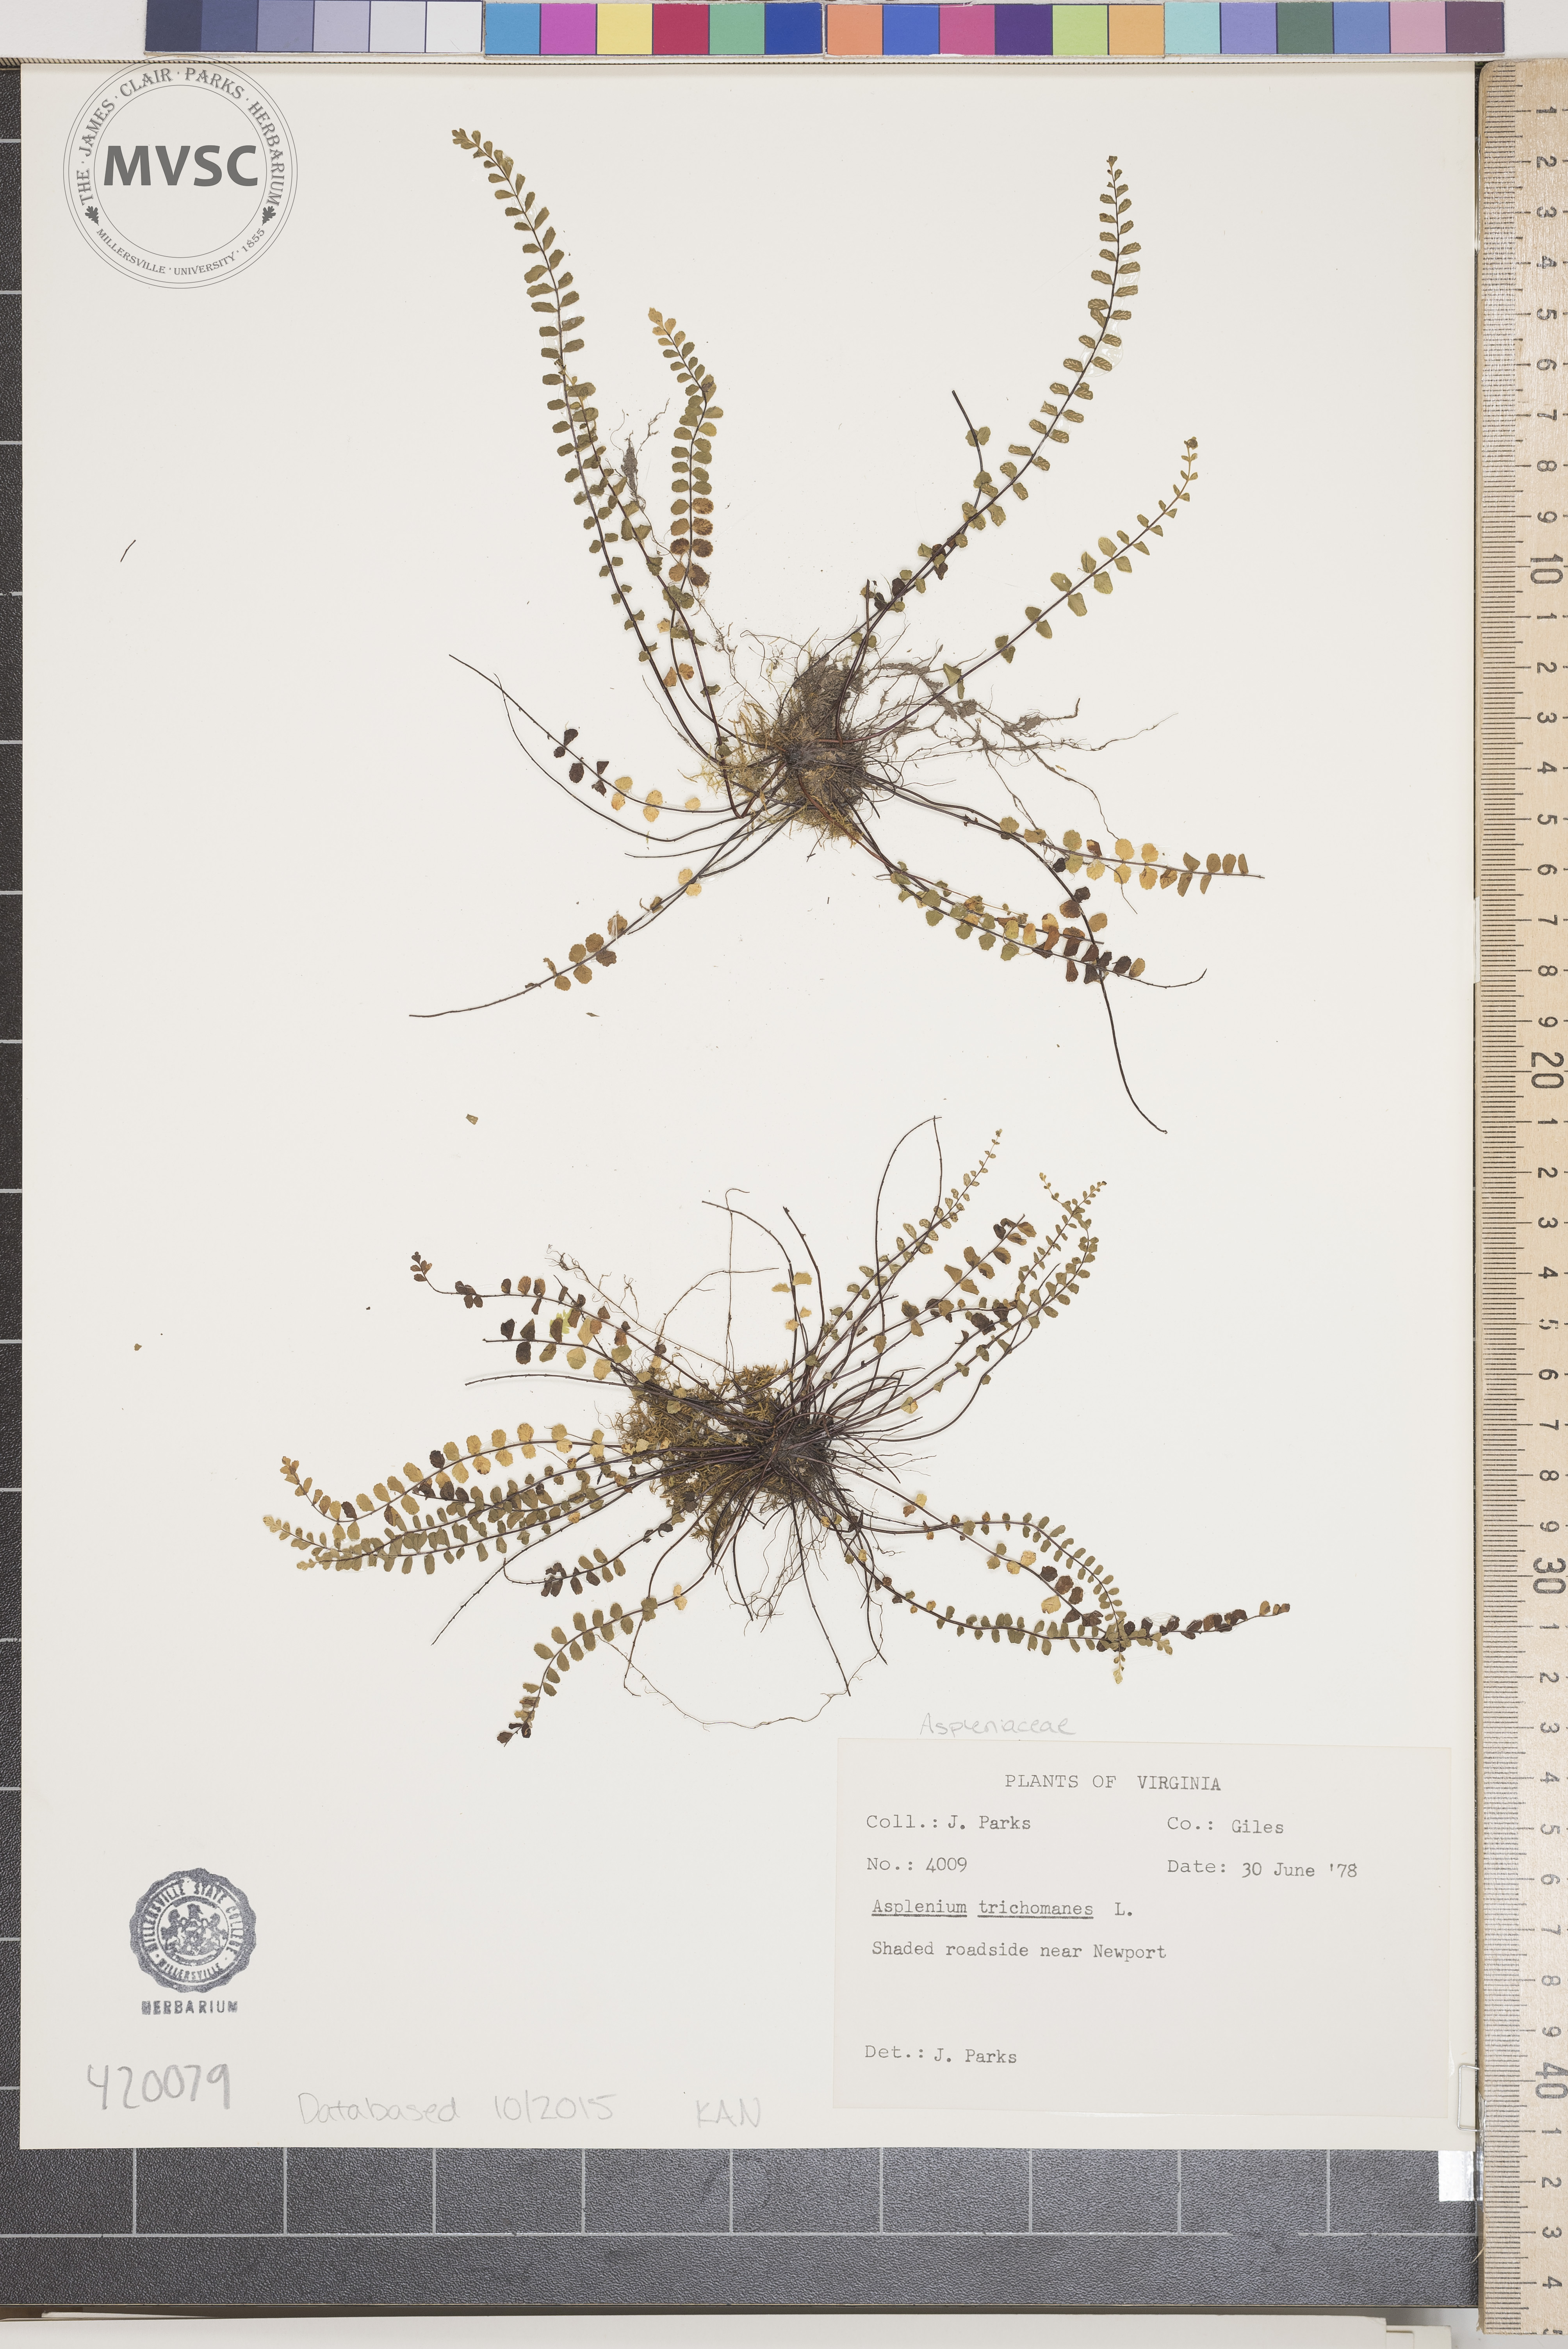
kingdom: Plantae
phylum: Tracheophyta
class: Polypodiopsida
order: Polypodiales
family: Aspleniaceae
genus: Asplenium
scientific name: Asplenium trichomanes
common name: Maidenhair spleenwort
